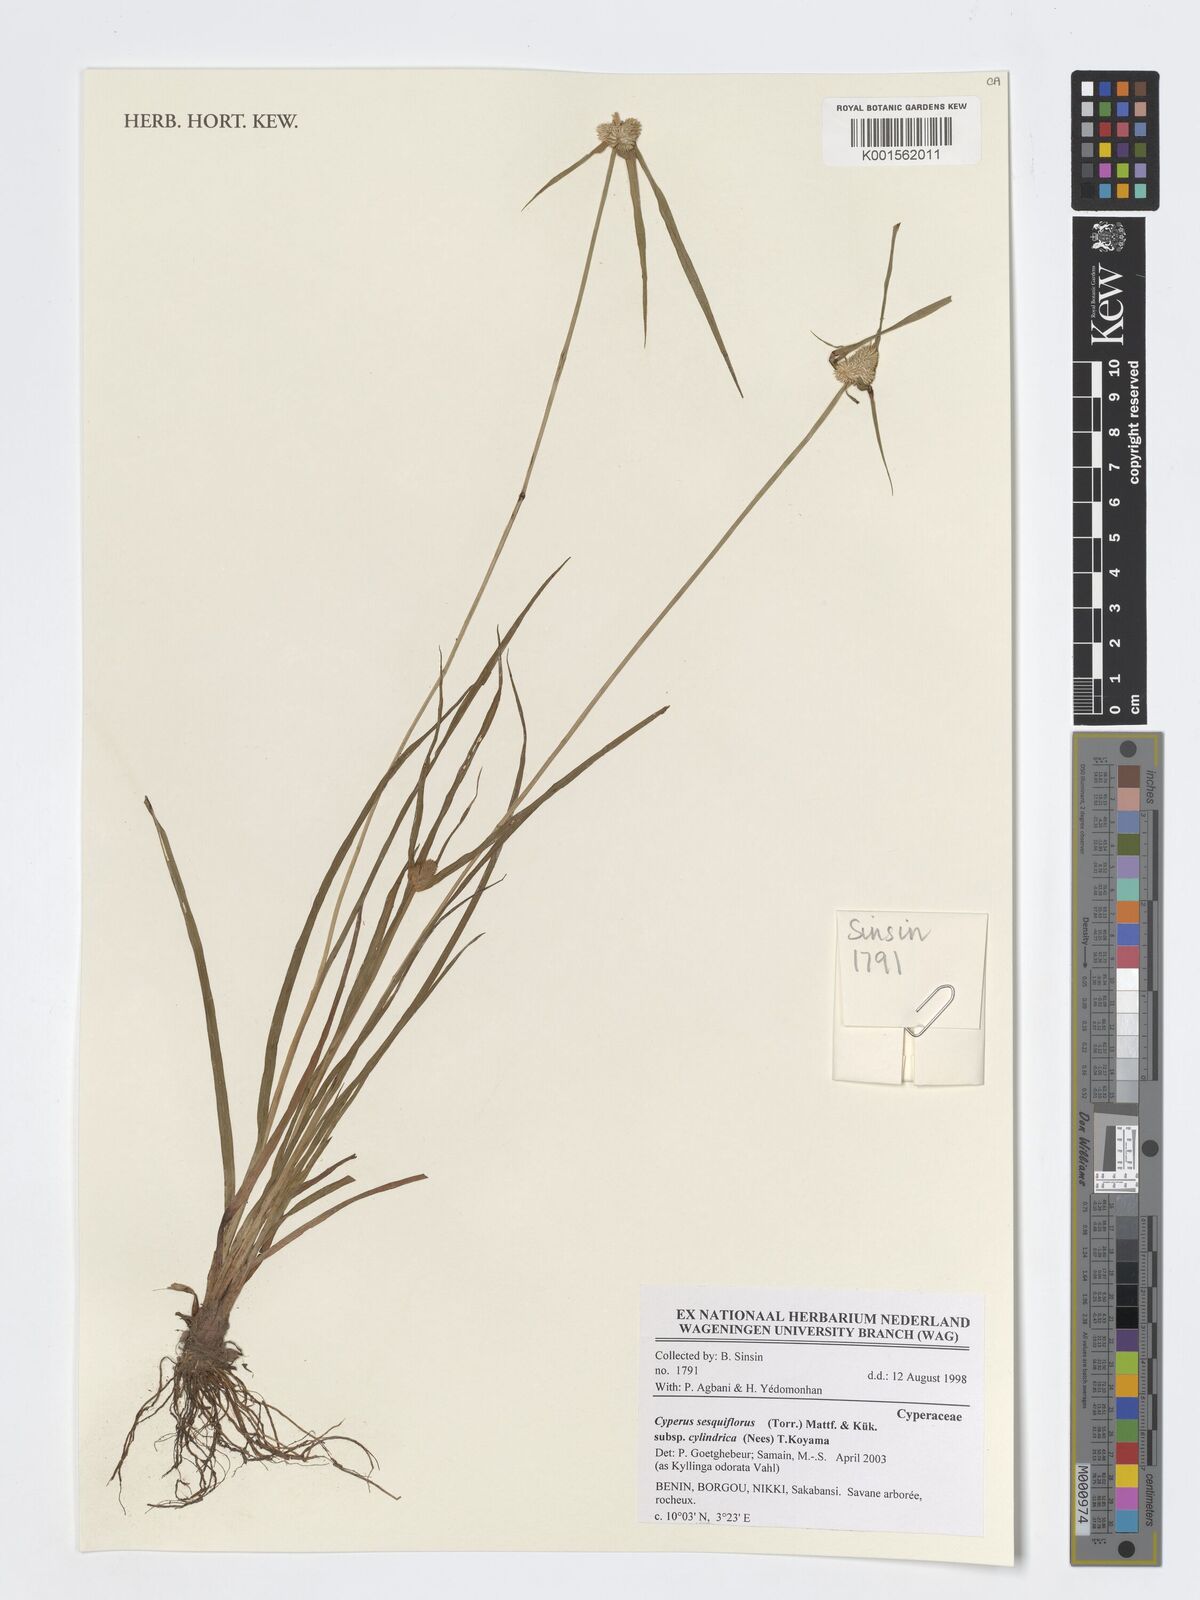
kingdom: Plantae
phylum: Tracheophyta
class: Liliopsida
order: Poales
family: Cyperaceae
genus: Cyperus
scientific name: Cyperus sesquiflorus
